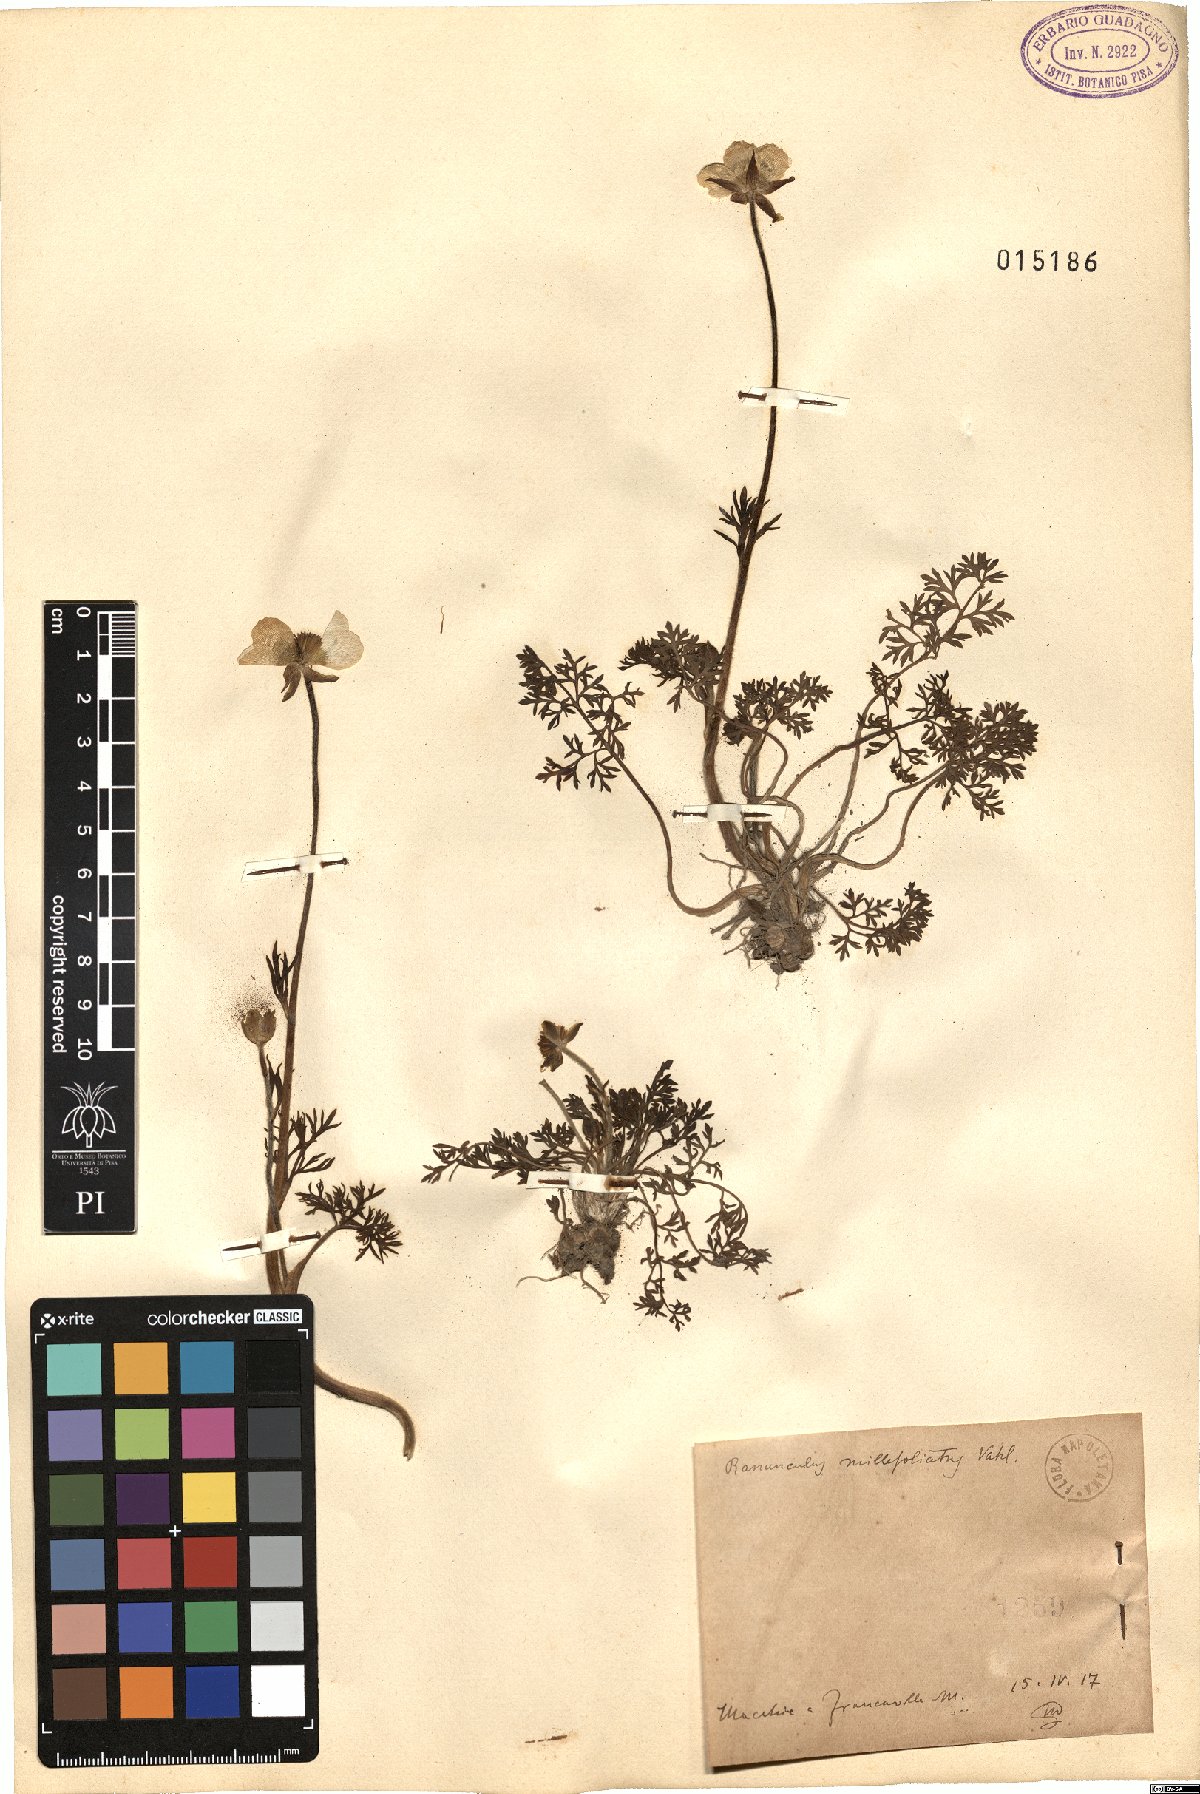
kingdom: Plantae
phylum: Tracheophyta
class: Magnoliopsida
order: Ranunculales
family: Ranunculaceae
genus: Ranunculus
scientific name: Ranunculus millefoliatus
